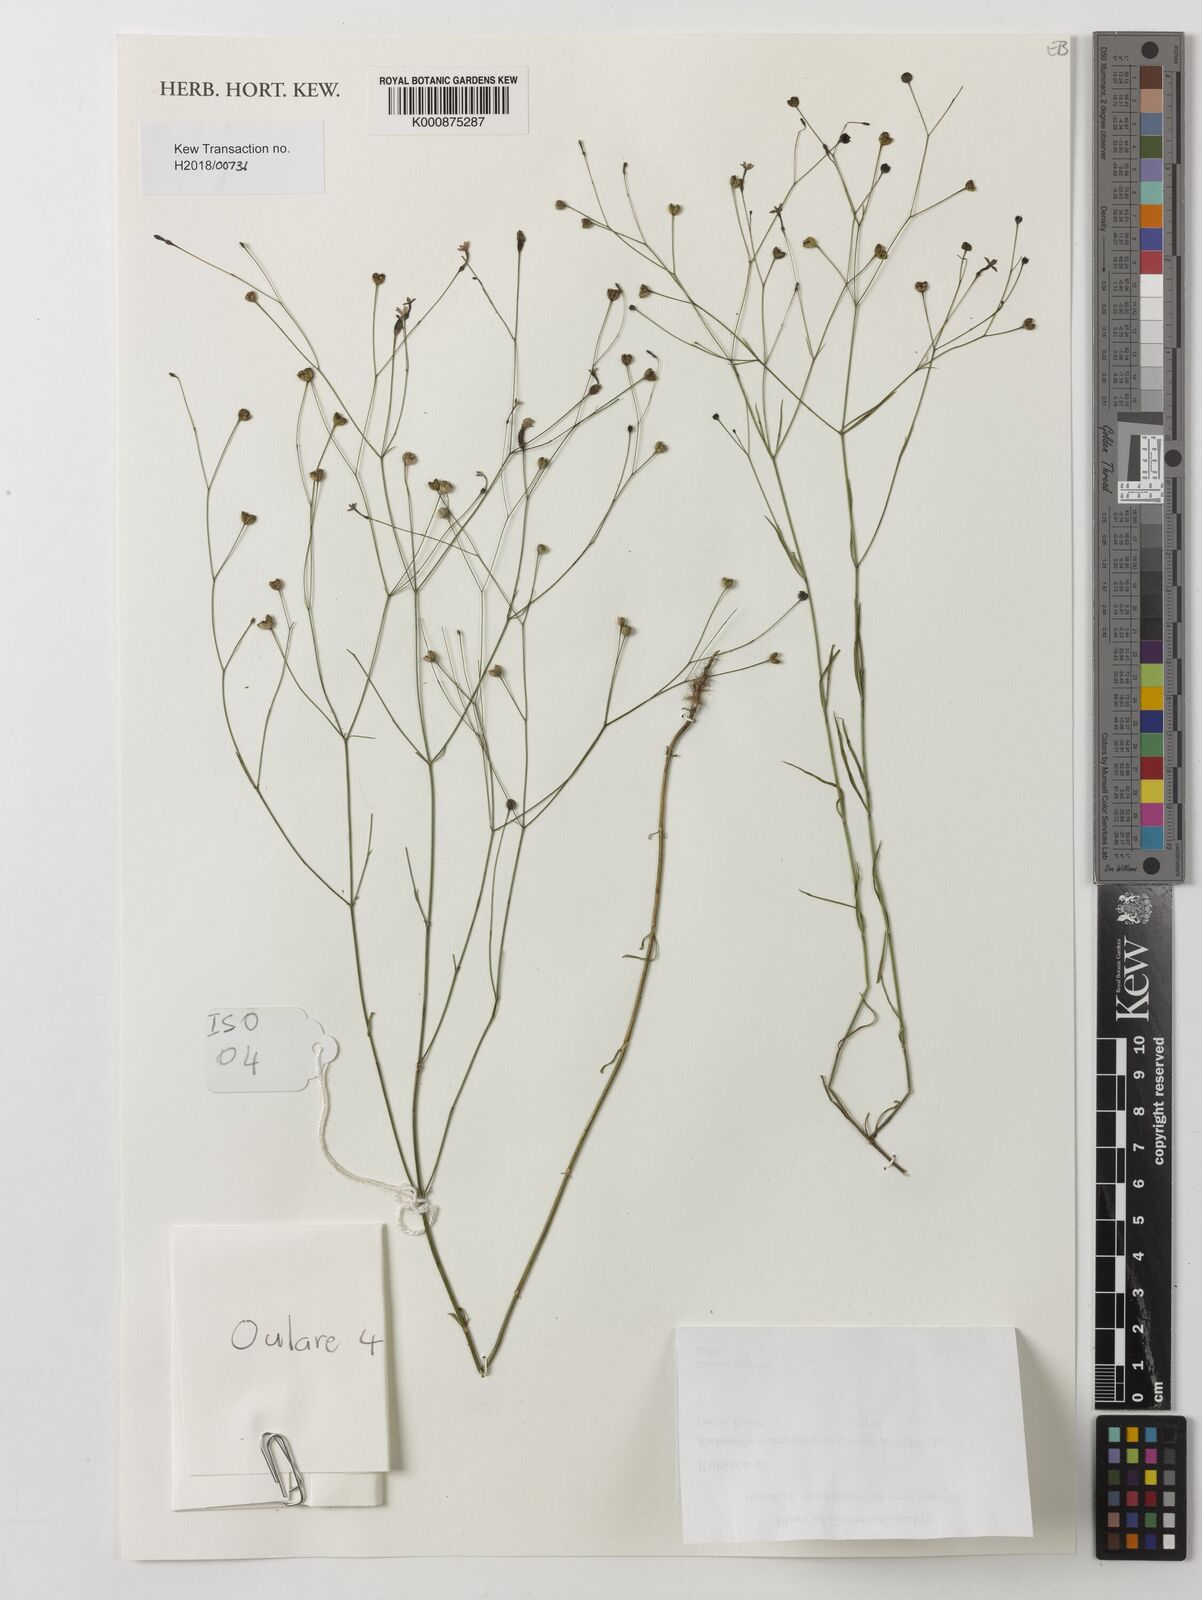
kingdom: Plantae
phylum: Tracheophyta
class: Magnoliopsida
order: Gentianales
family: Rubiaceae
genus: Kohautia
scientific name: Kohautia tenuis
